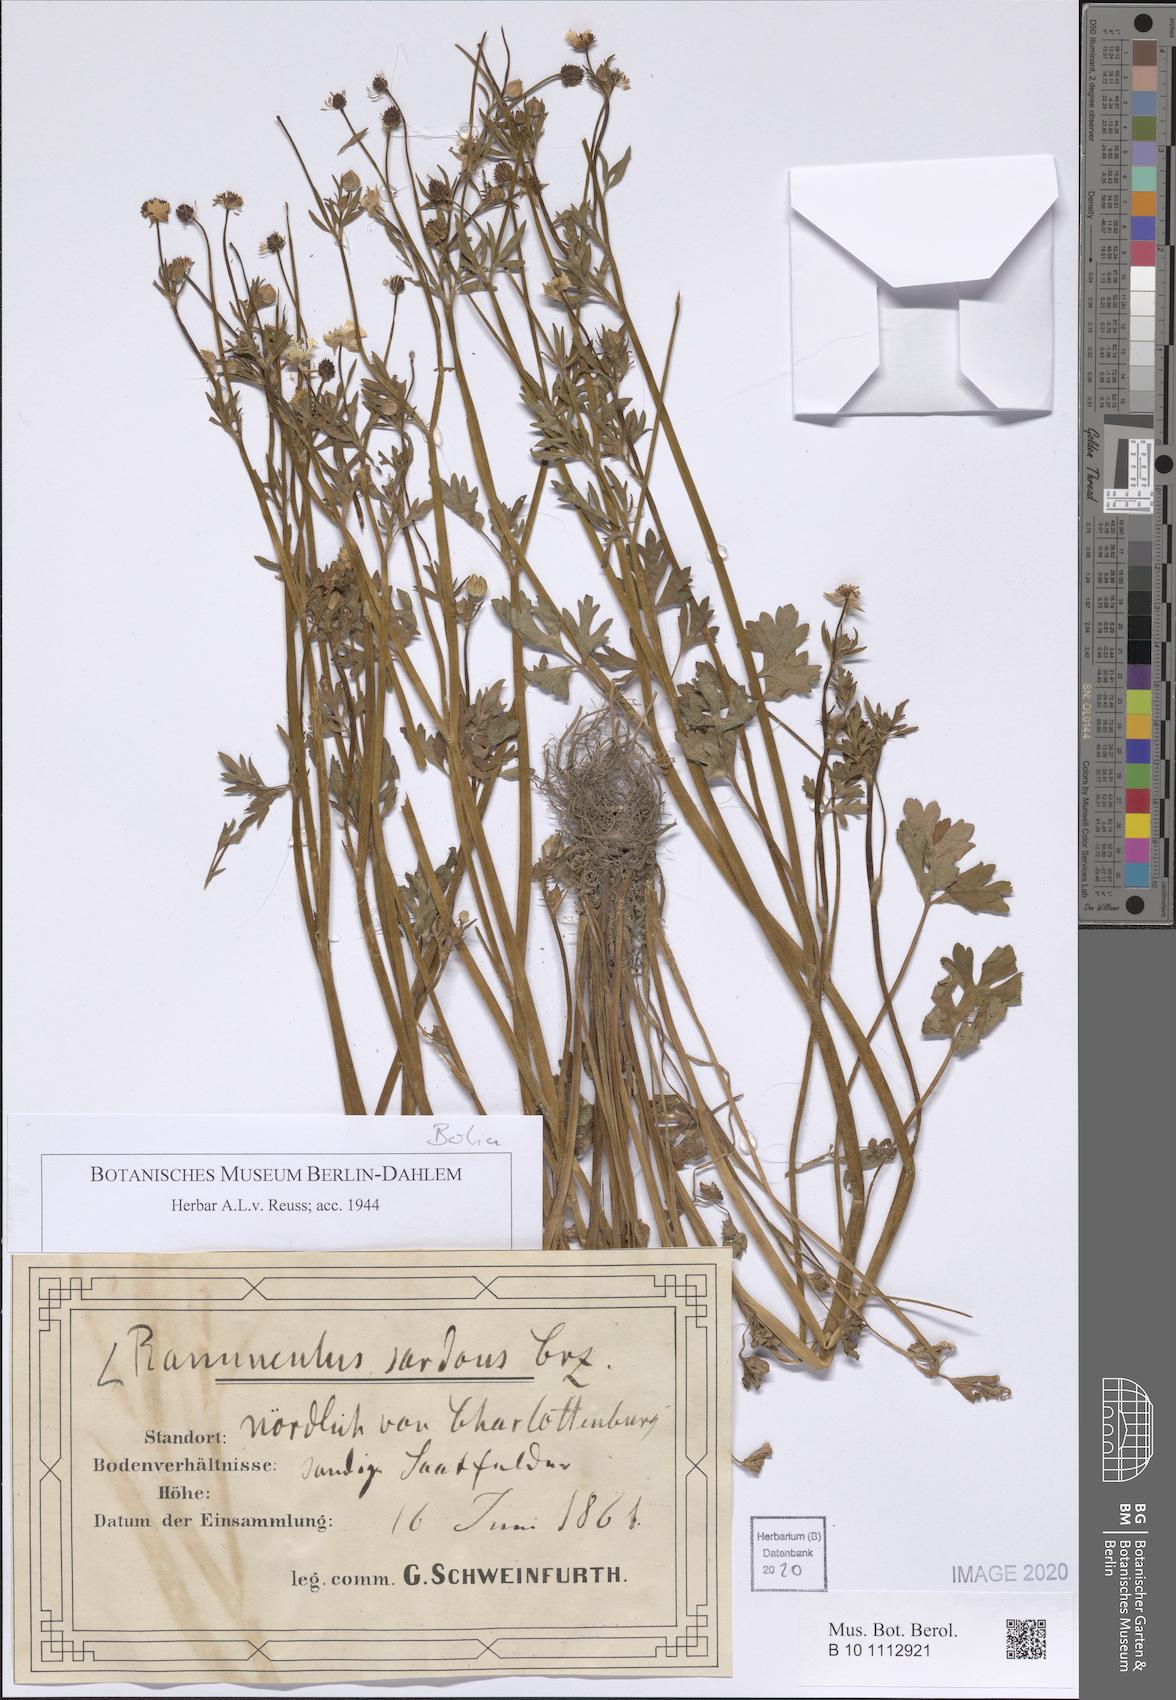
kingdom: Plantae
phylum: Tracheophyta
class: Magnoliopsida
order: Ranunculales
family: Ranunculaceae
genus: Ranunculus
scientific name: Ranunculus sardous
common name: Hairy buttercup
